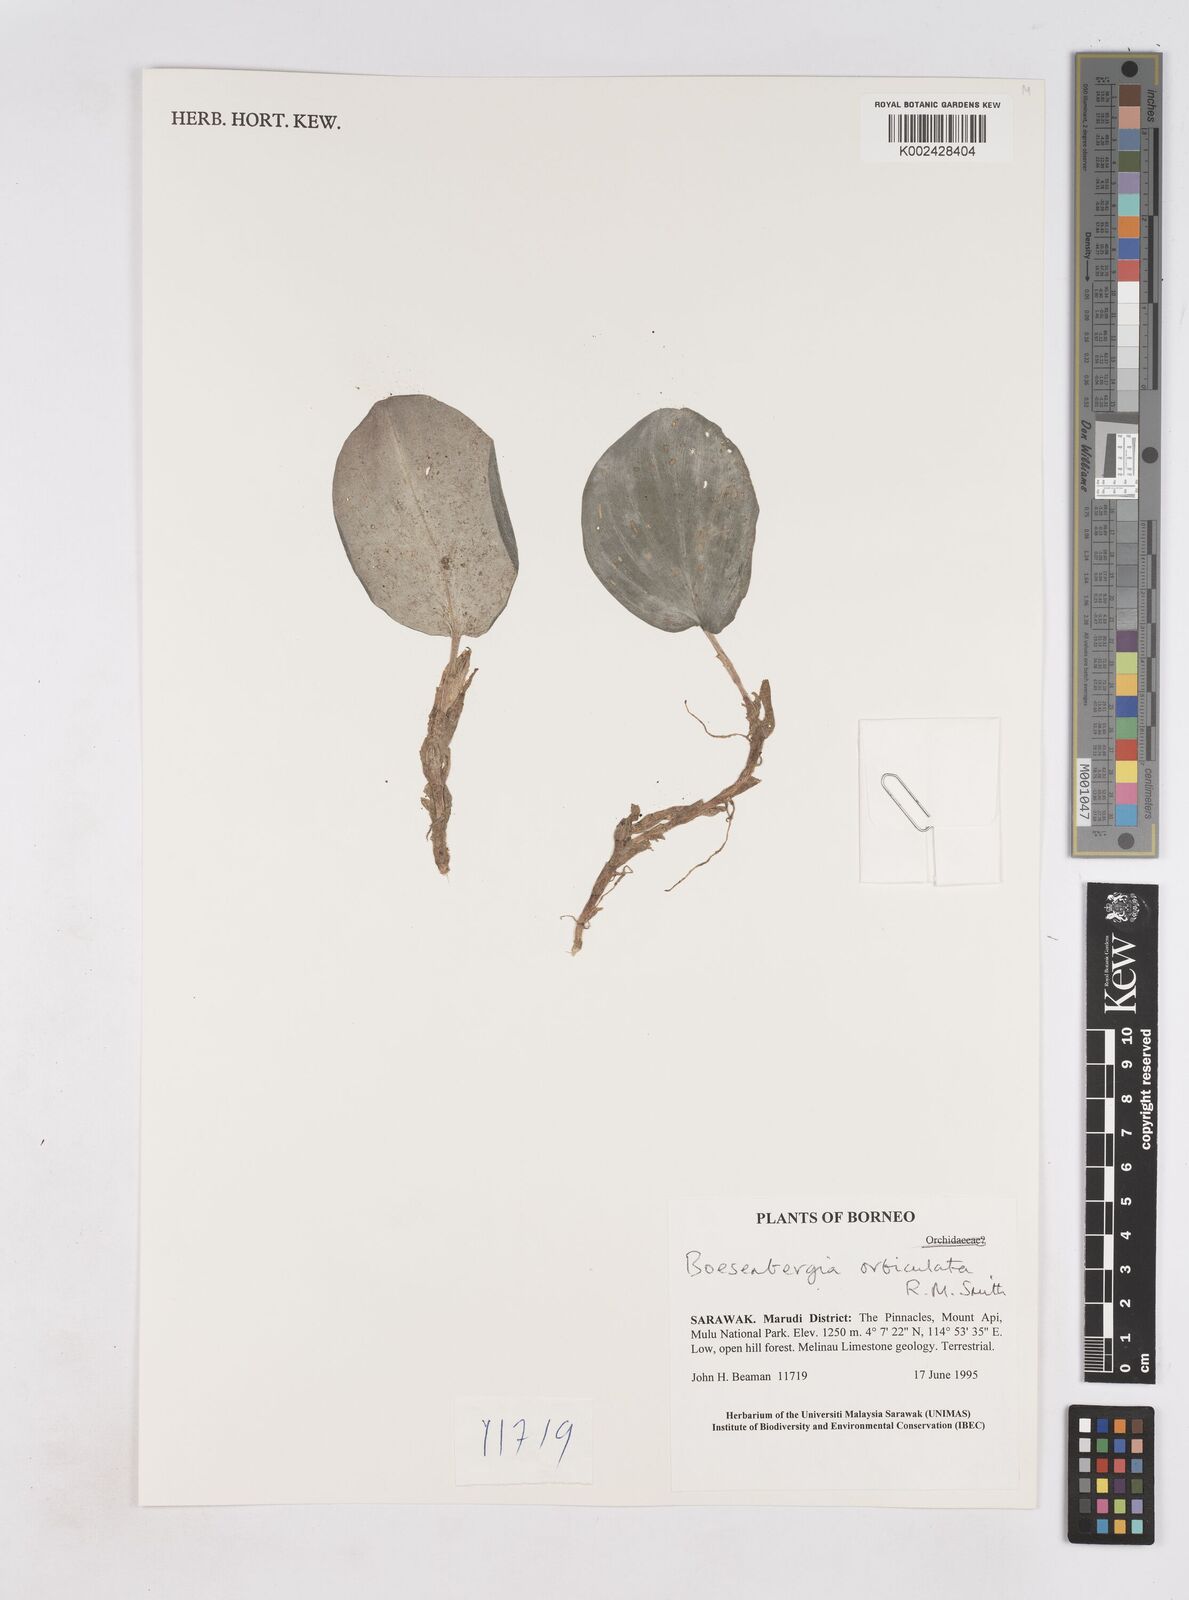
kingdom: Plantae
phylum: Tracheophyta
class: Liliopsida
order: Zingiberales
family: Zingiberaceae
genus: Boesenbergia
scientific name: Boesenbergia orbiculata
